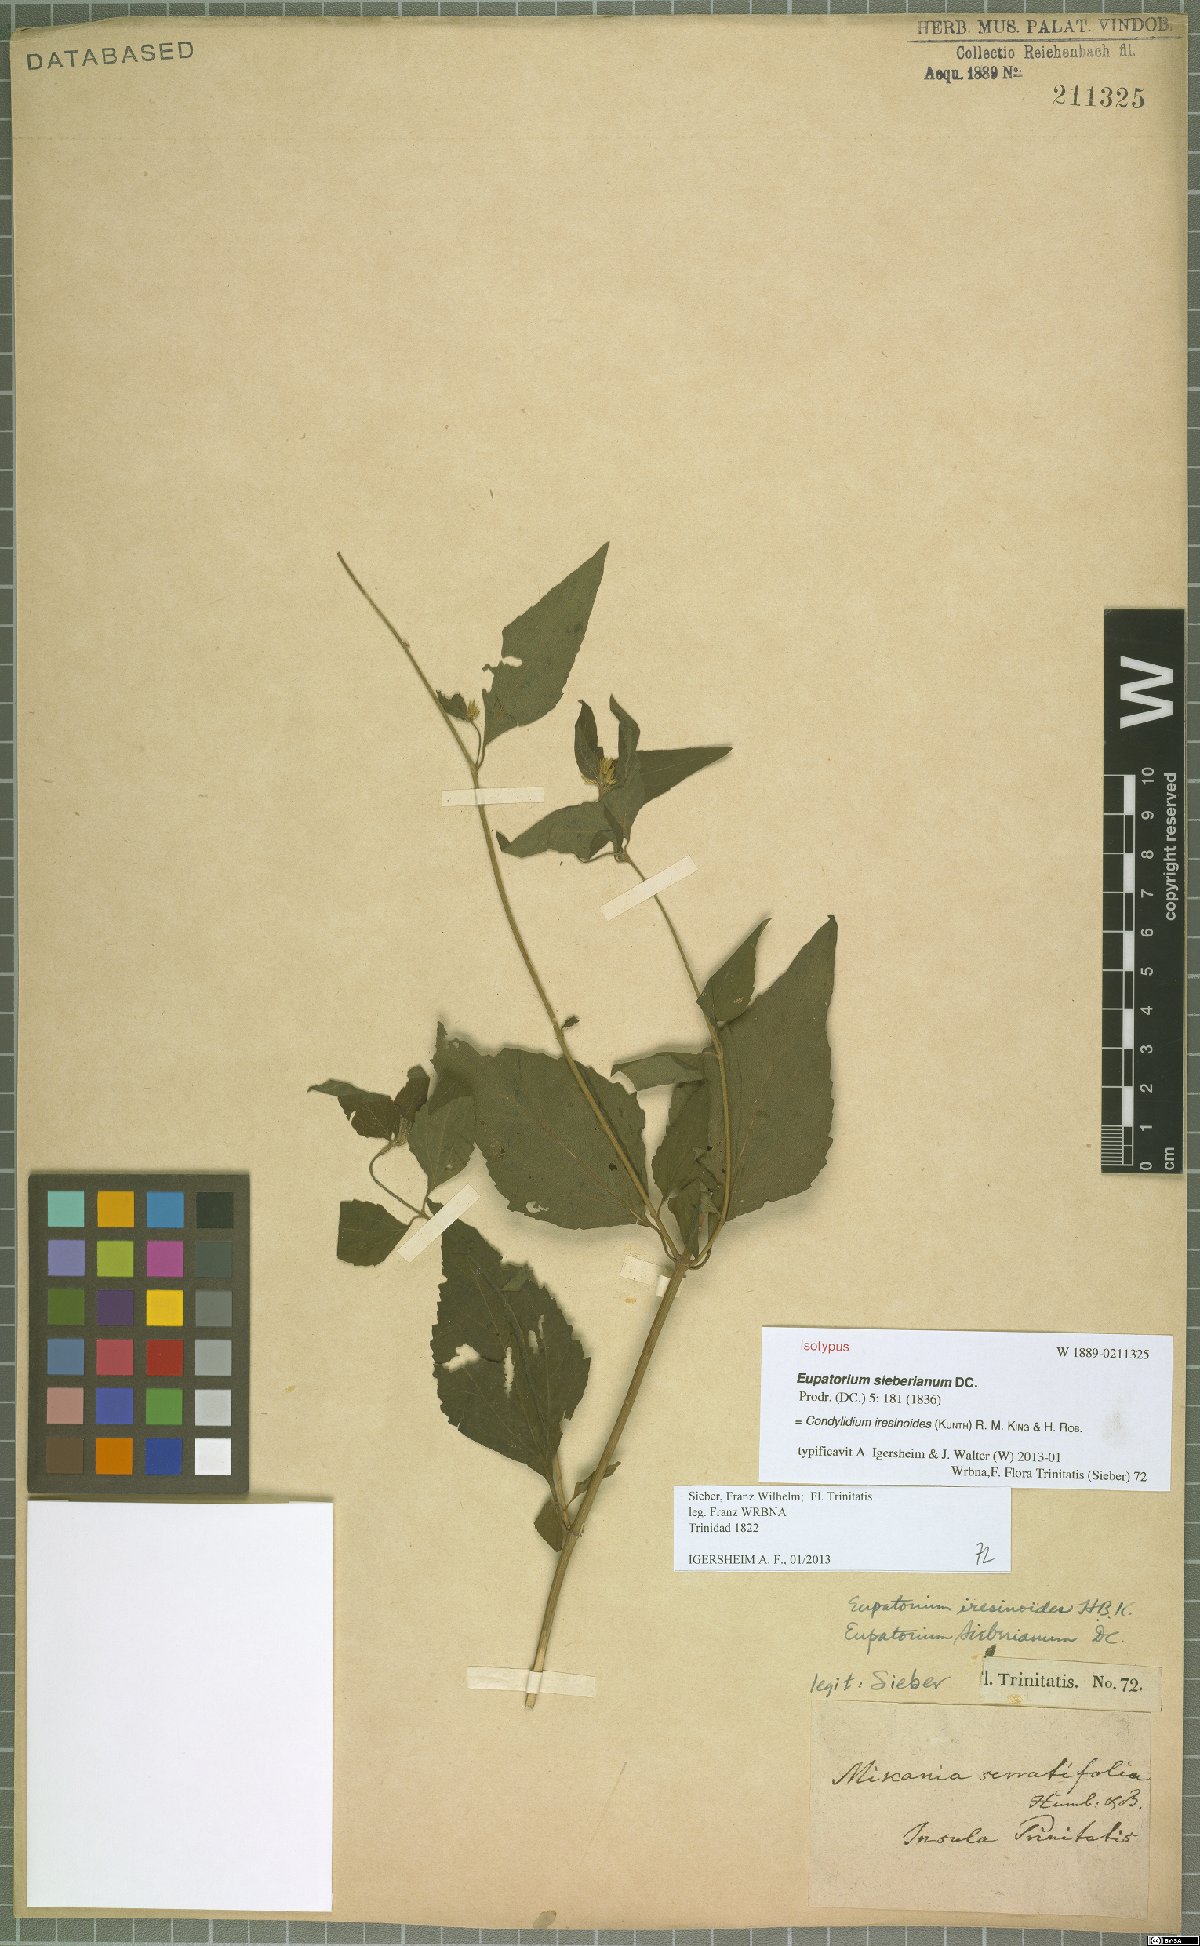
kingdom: Plantae
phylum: Tracheophyta
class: Magnoliopsida
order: Asterales
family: Asteraceae
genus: Condylidium
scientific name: Condylidium iresinoides
